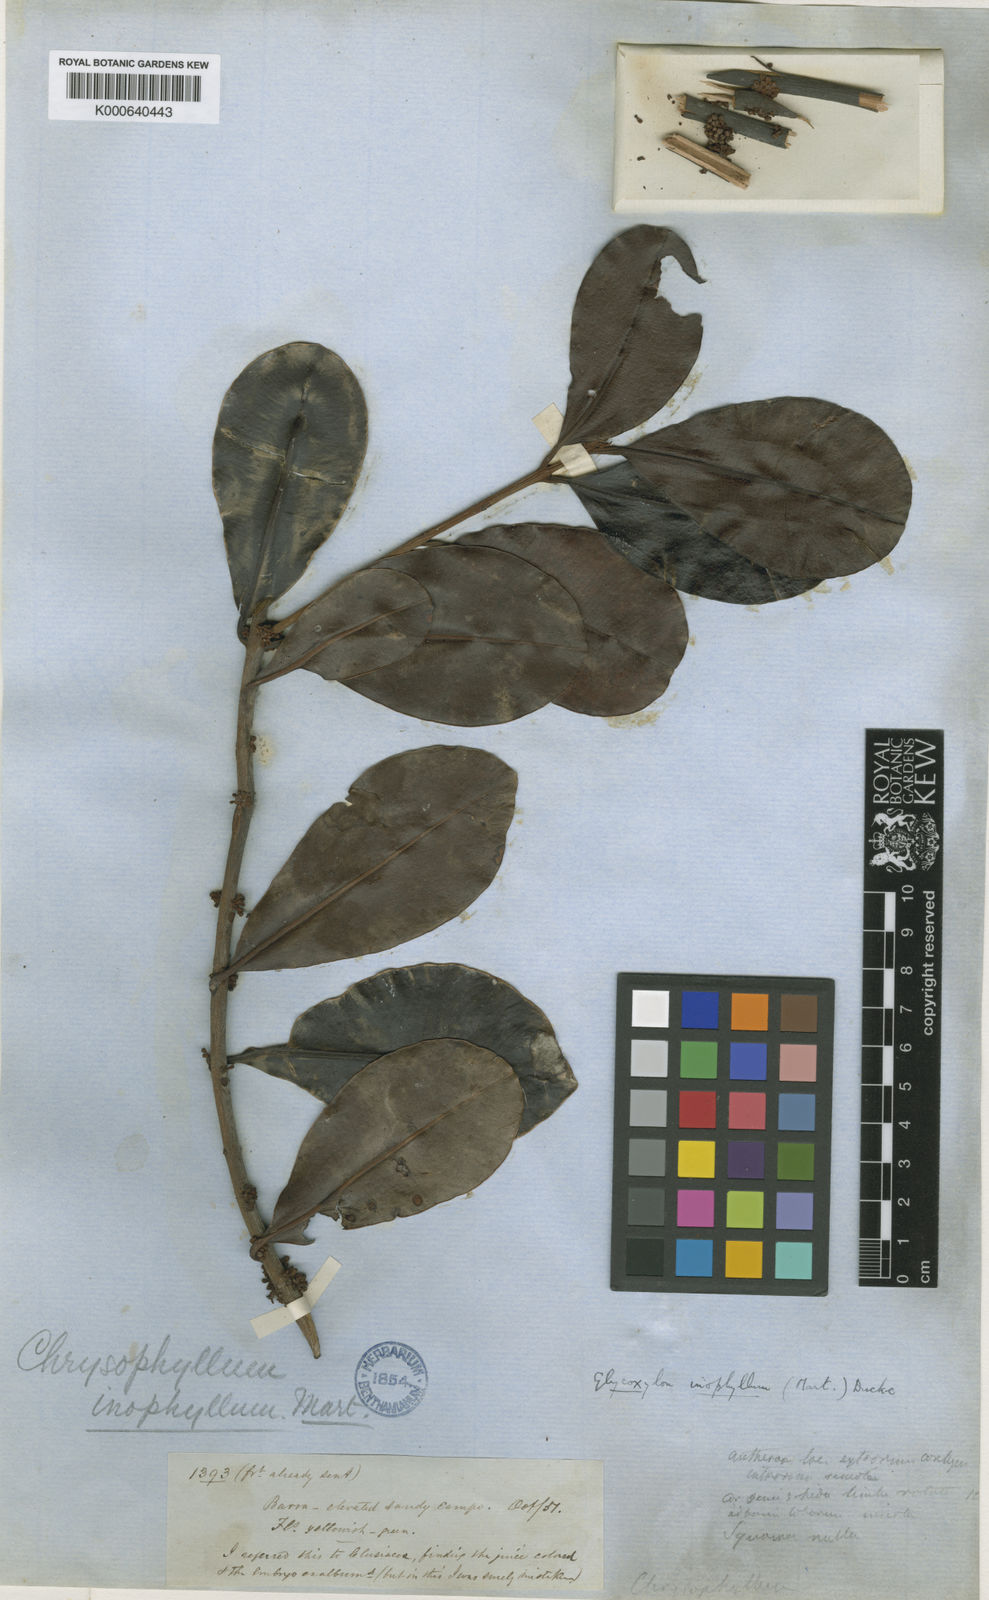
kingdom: Plantae
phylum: Tracheophyta
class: Magnoliopsida
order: Ericales
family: Sapotaceae
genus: Pradosia
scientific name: Pradosia schomburgkiana
